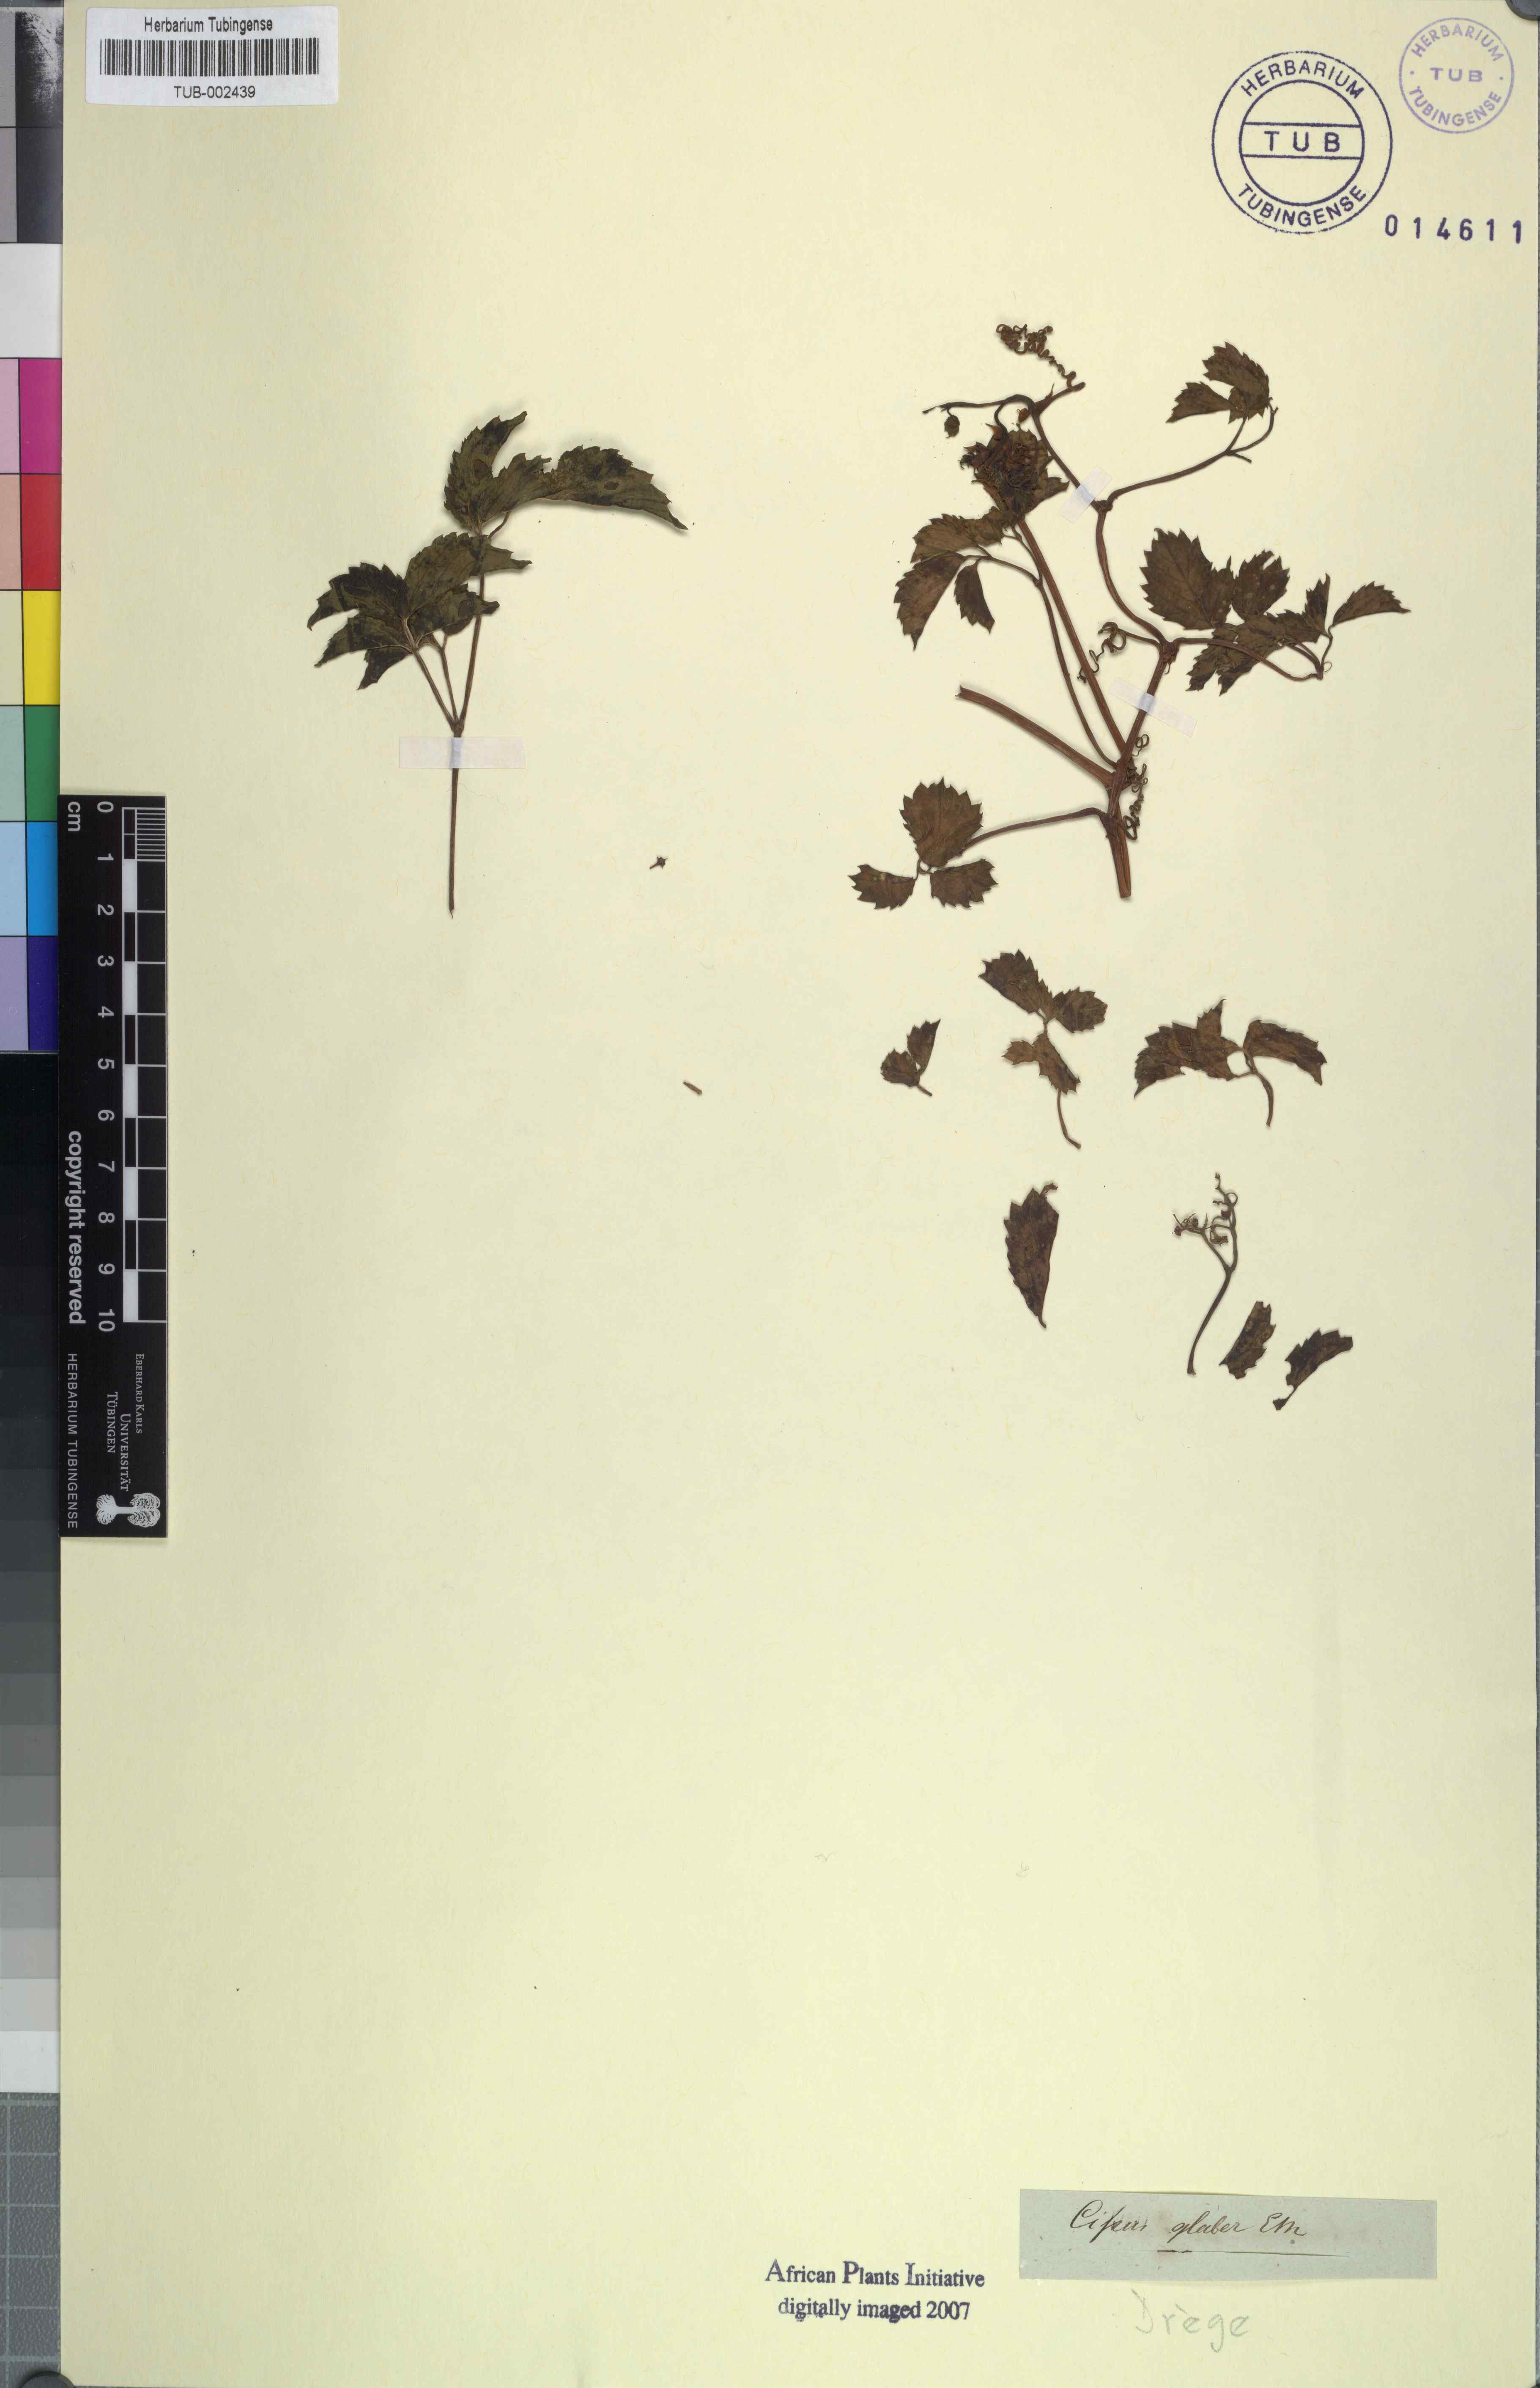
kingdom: Plantae
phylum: Tracheophyta
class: Magnoliopsida
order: Vitales
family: Vitaceae
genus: Ampelopsis
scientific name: Ampelopsis orientalis
